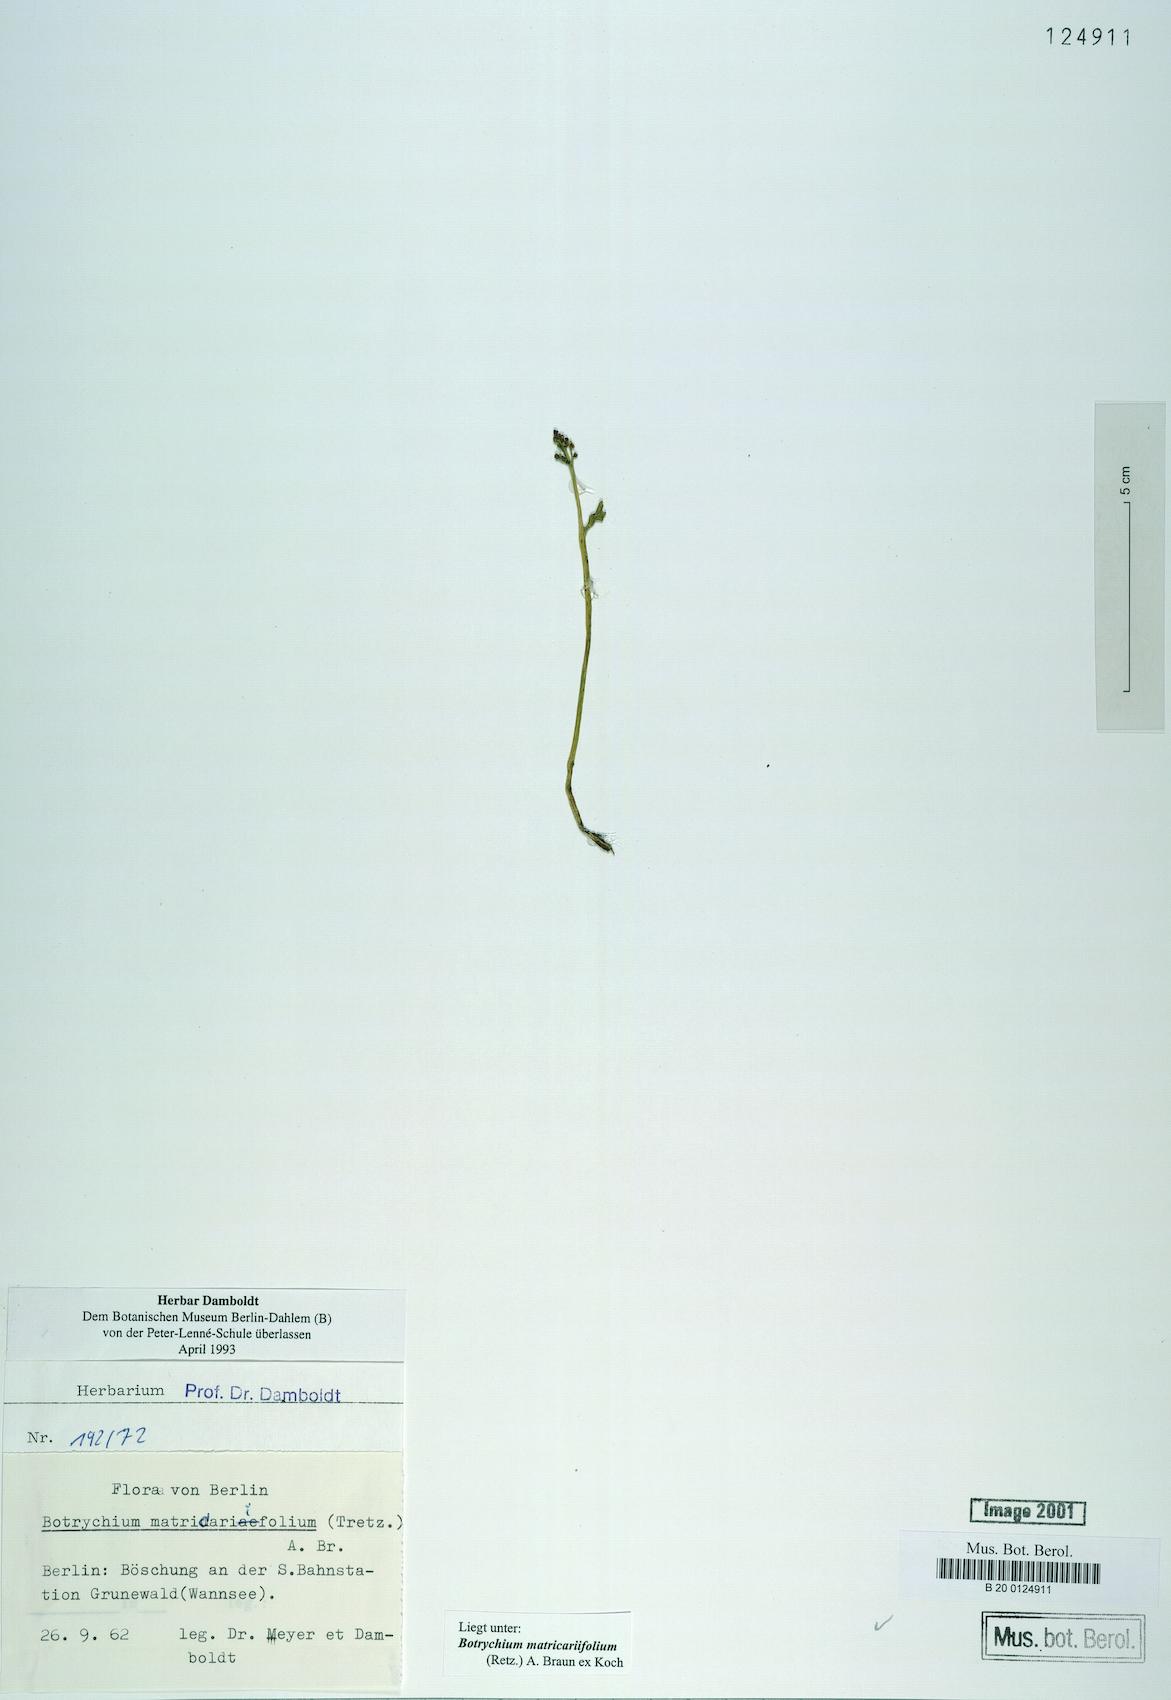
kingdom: Plantae
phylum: Tracheophyta
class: Polypodiopsida
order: Ophioglossales
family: Ophioglossaceae
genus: Botrychium
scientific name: Botrychium matricariifolium
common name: Branched moonwort
